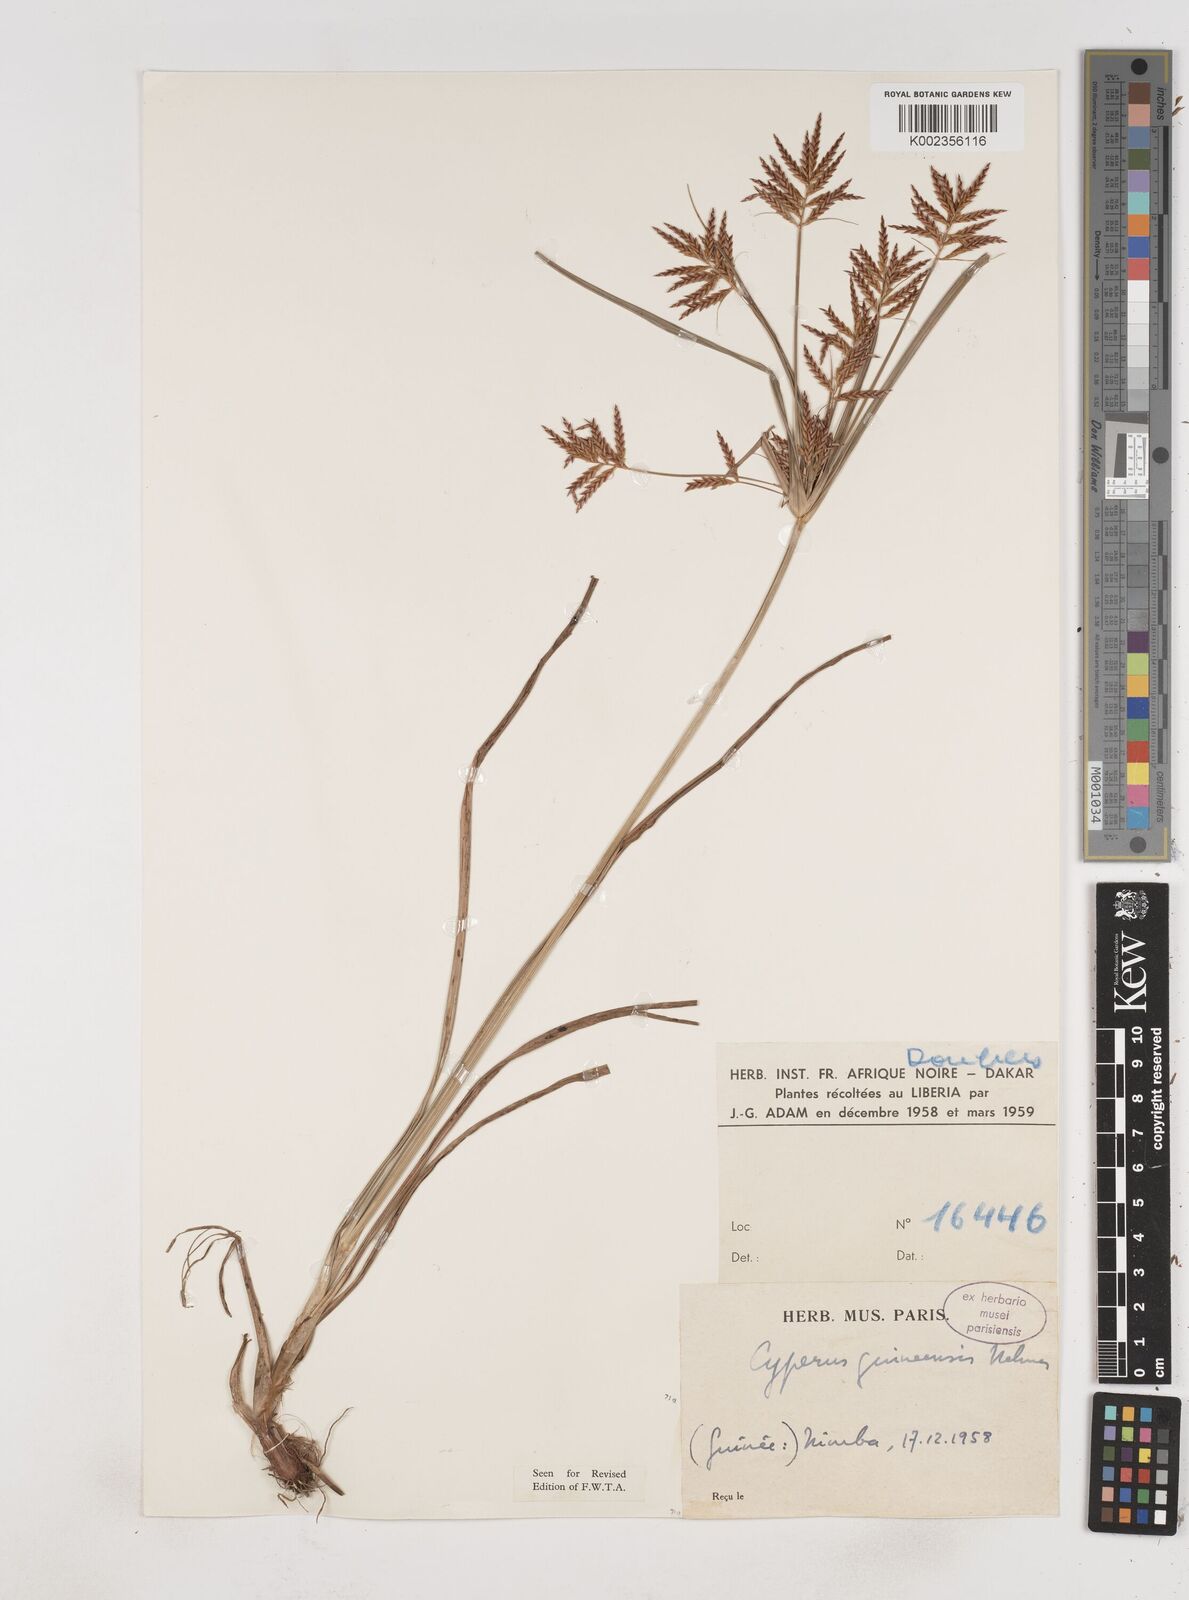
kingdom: Plantae
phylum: Tracheophyta
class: Liliopsida
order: Poales
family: Cyperaceae
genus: Cyperus
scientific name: Cyperus tenuiculmis
